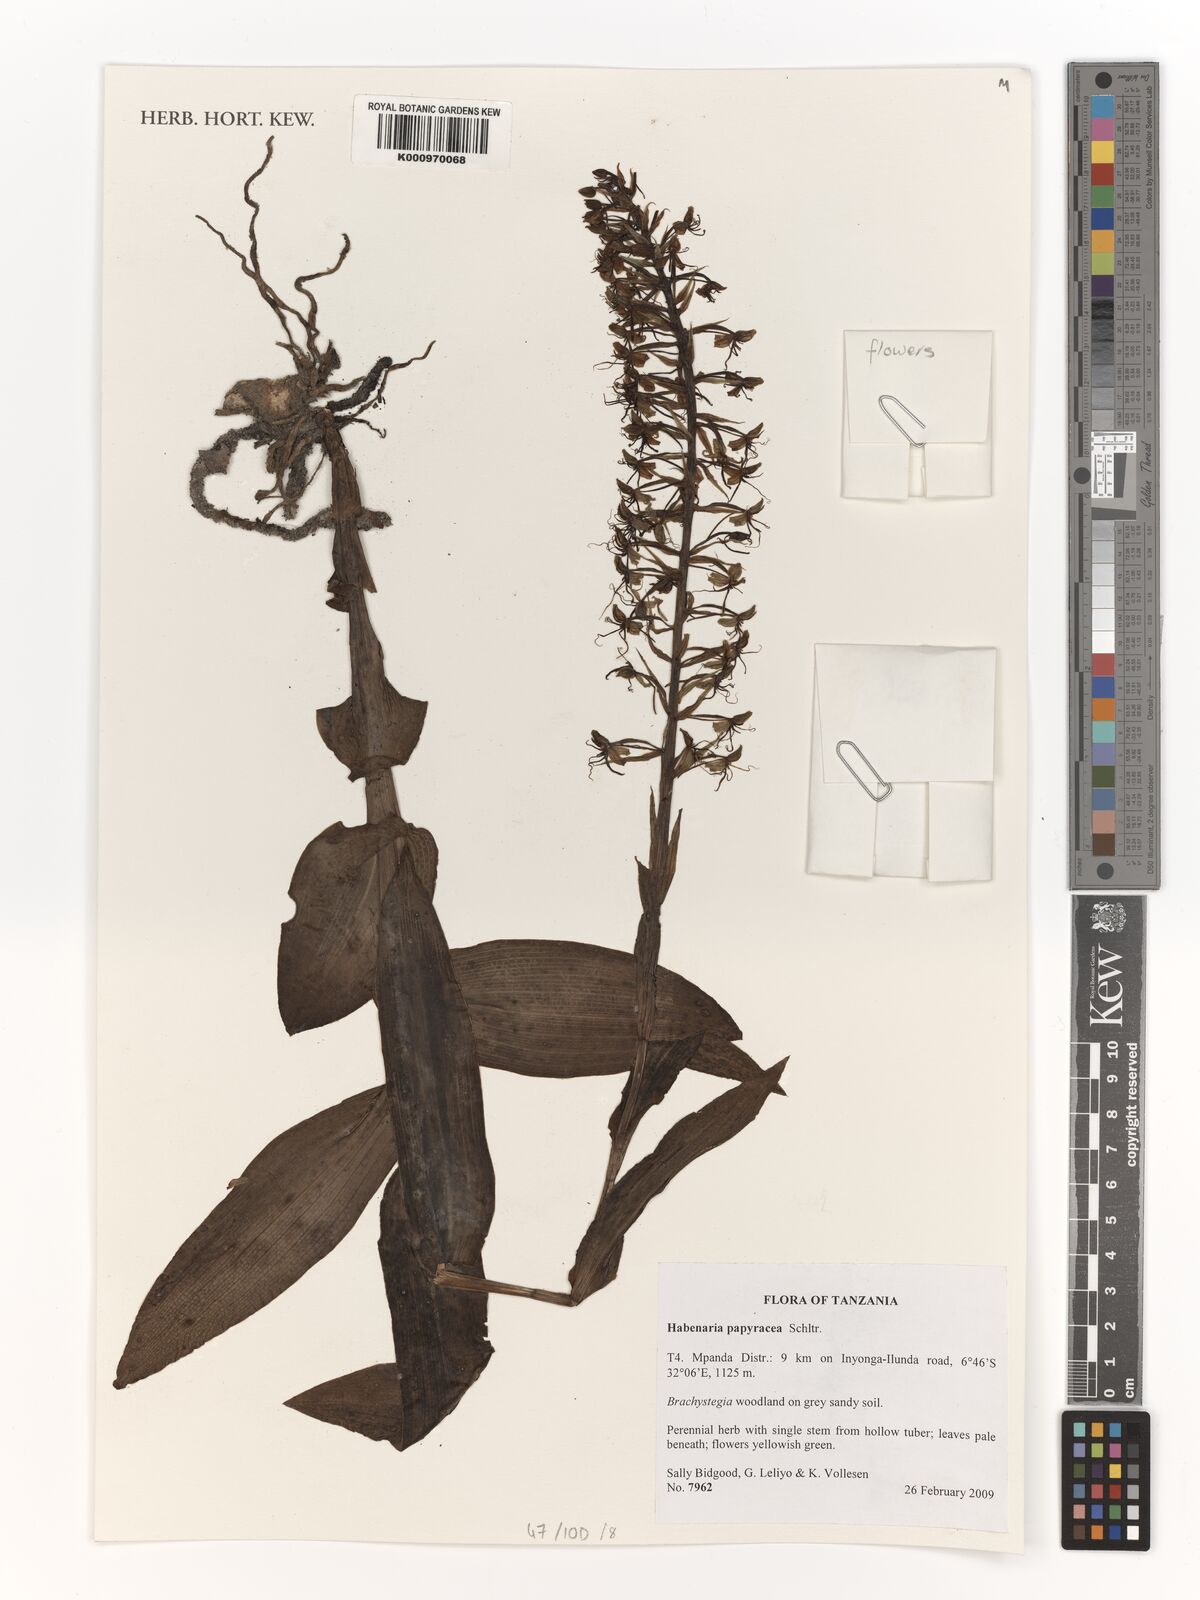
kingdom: Plantae
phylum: Tracheophyta
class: Liliopsida
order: Asparagales
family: Orchidaceae
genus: Habenaria
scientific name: Habenaria papyracea
